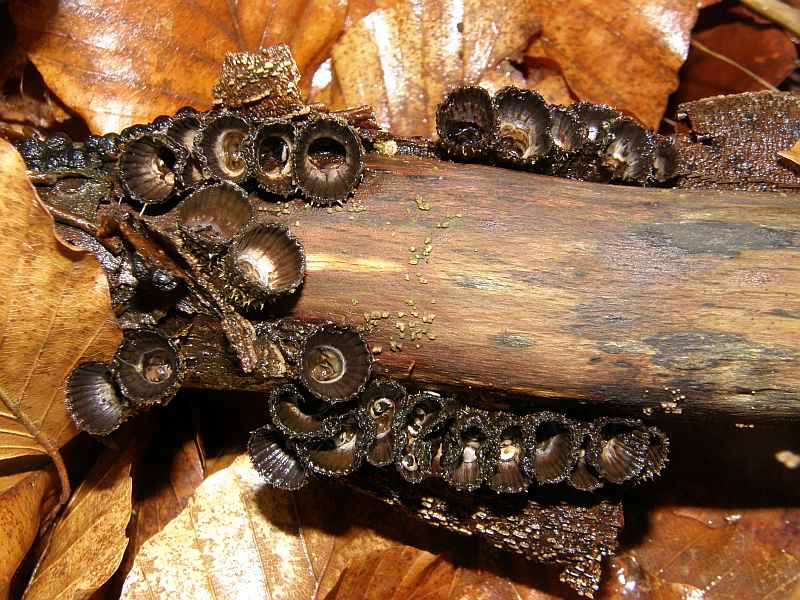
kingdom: Fungi
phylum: Basidiomycota
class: Agaricomycetes
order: Agaricales
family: Agaricaceae
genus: Cyathus
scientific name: Cyathus striatus
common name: stribet redesvamp
